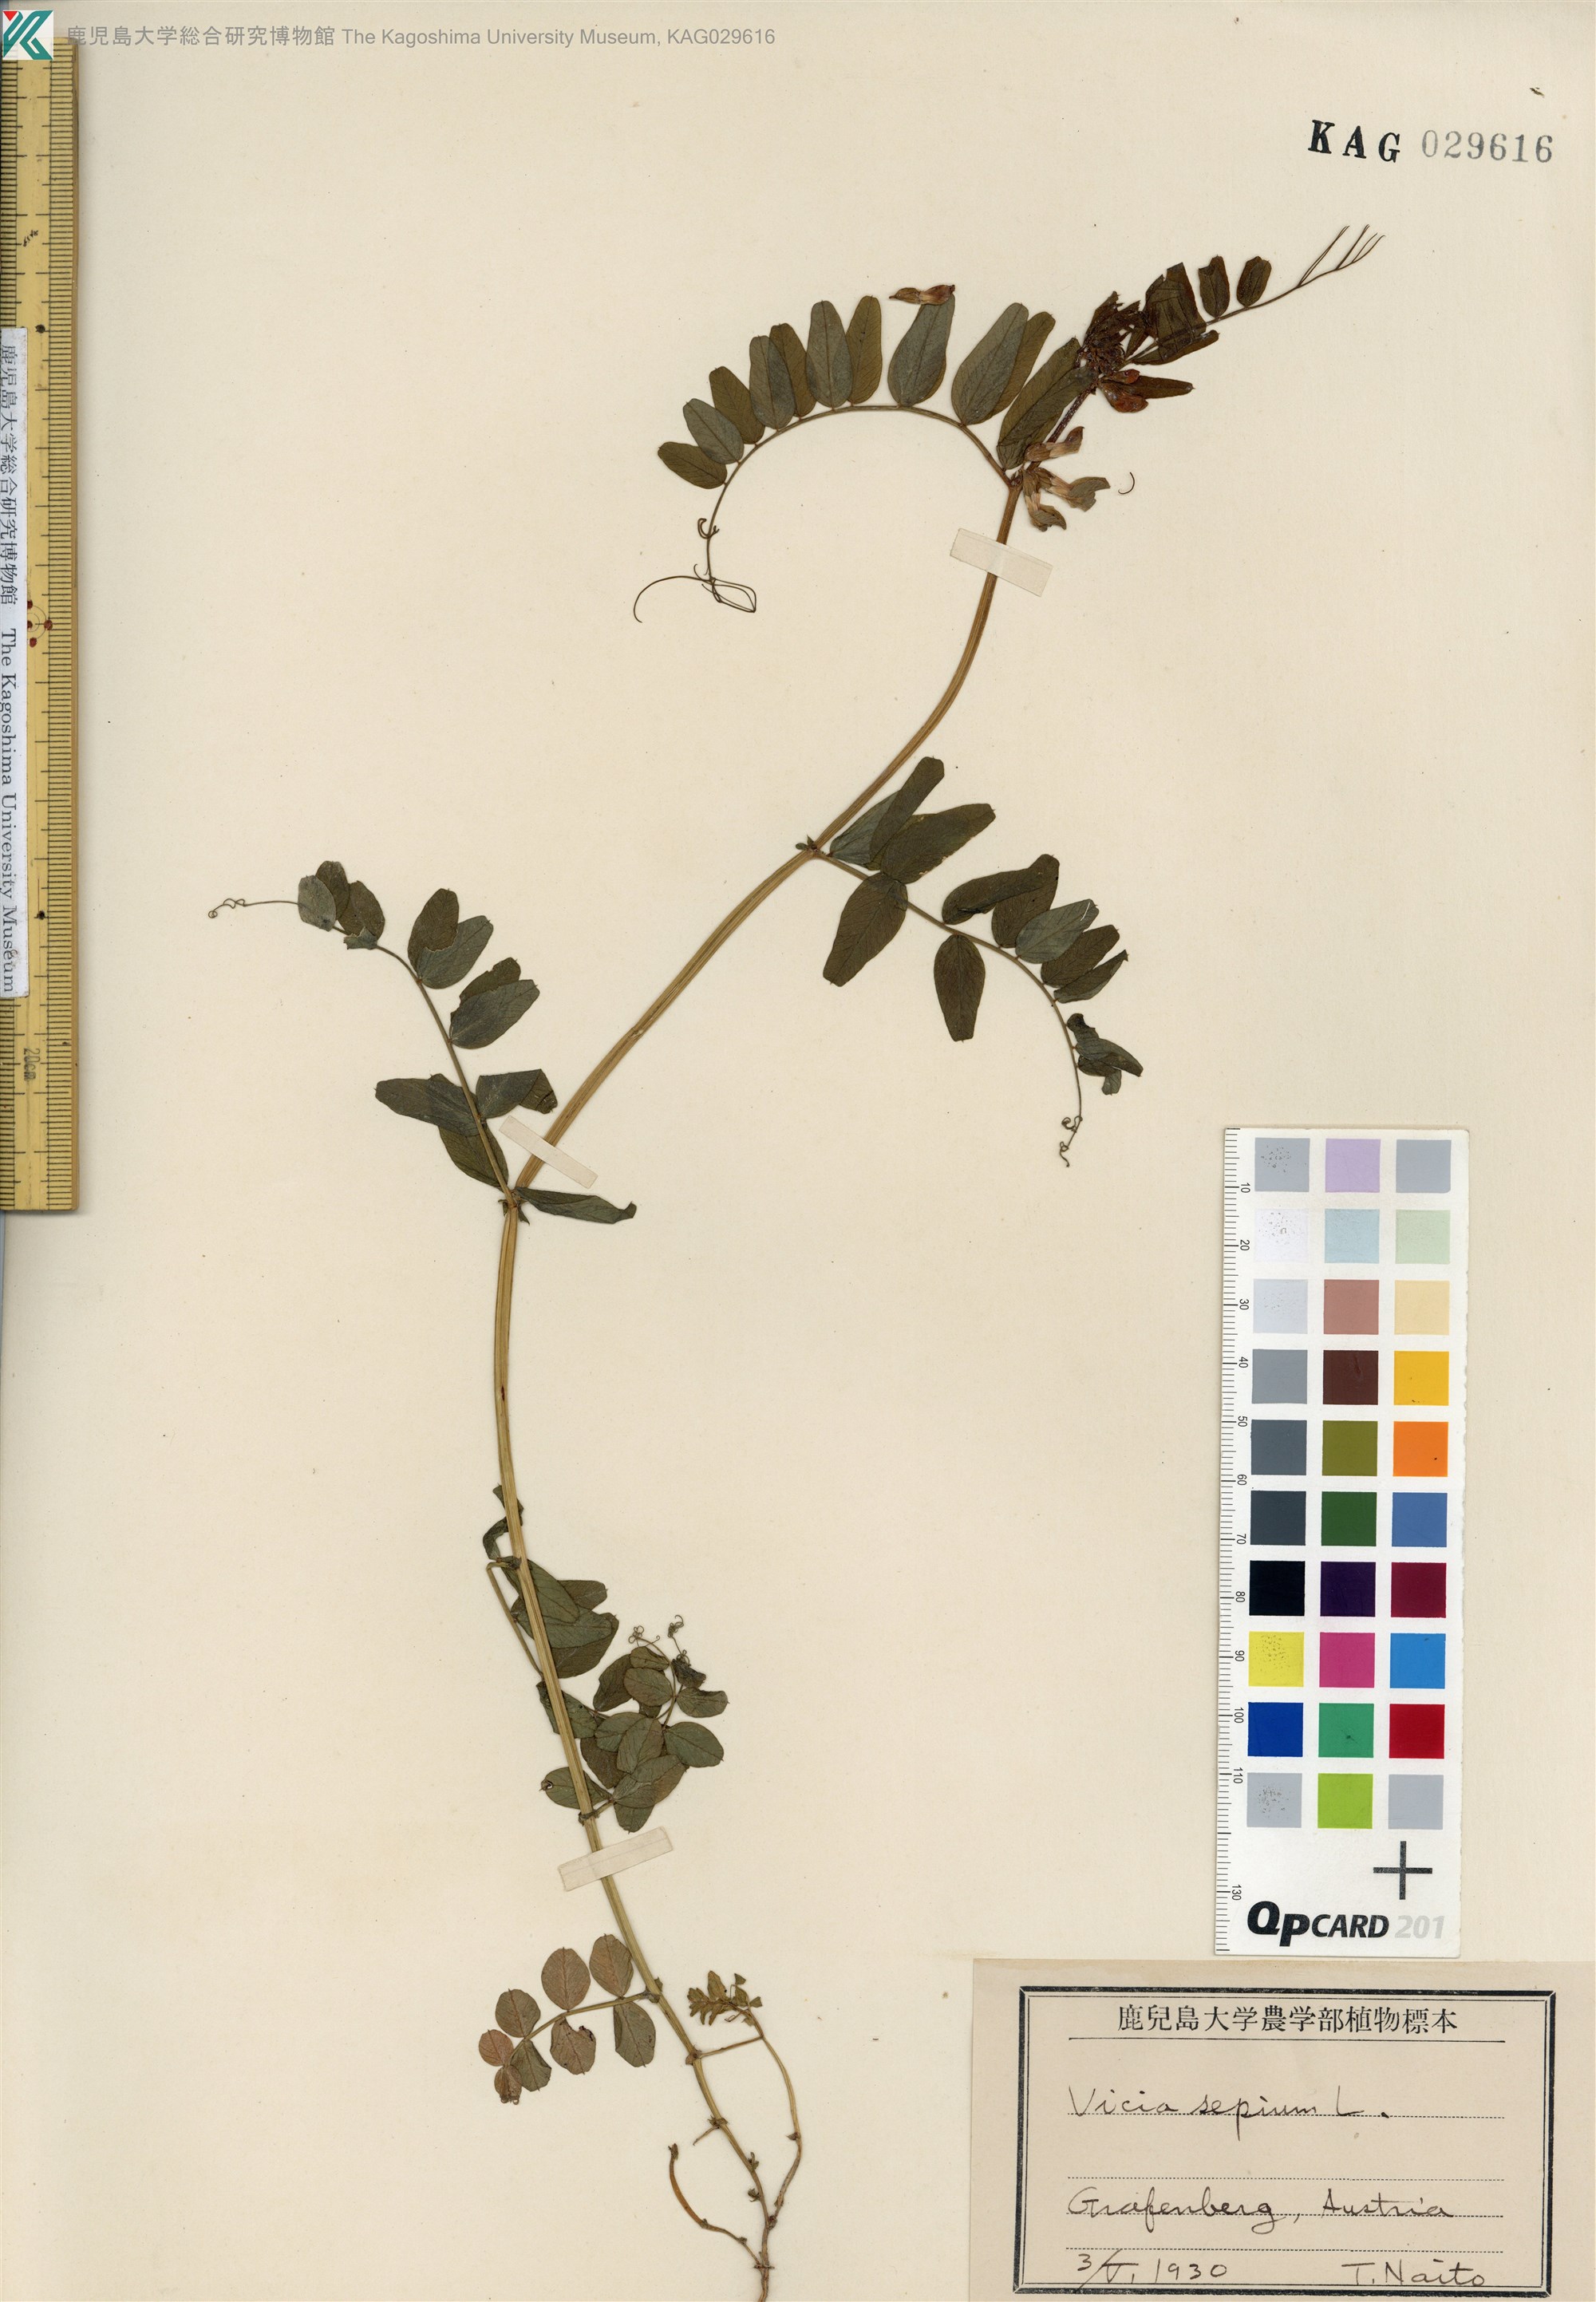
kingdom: Plantae
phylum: Tracheophyta
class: Magnoliopsida
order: Fabales
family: Fabaceae
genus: Vicia
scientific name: Vicia sepium
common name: Bush vetch
